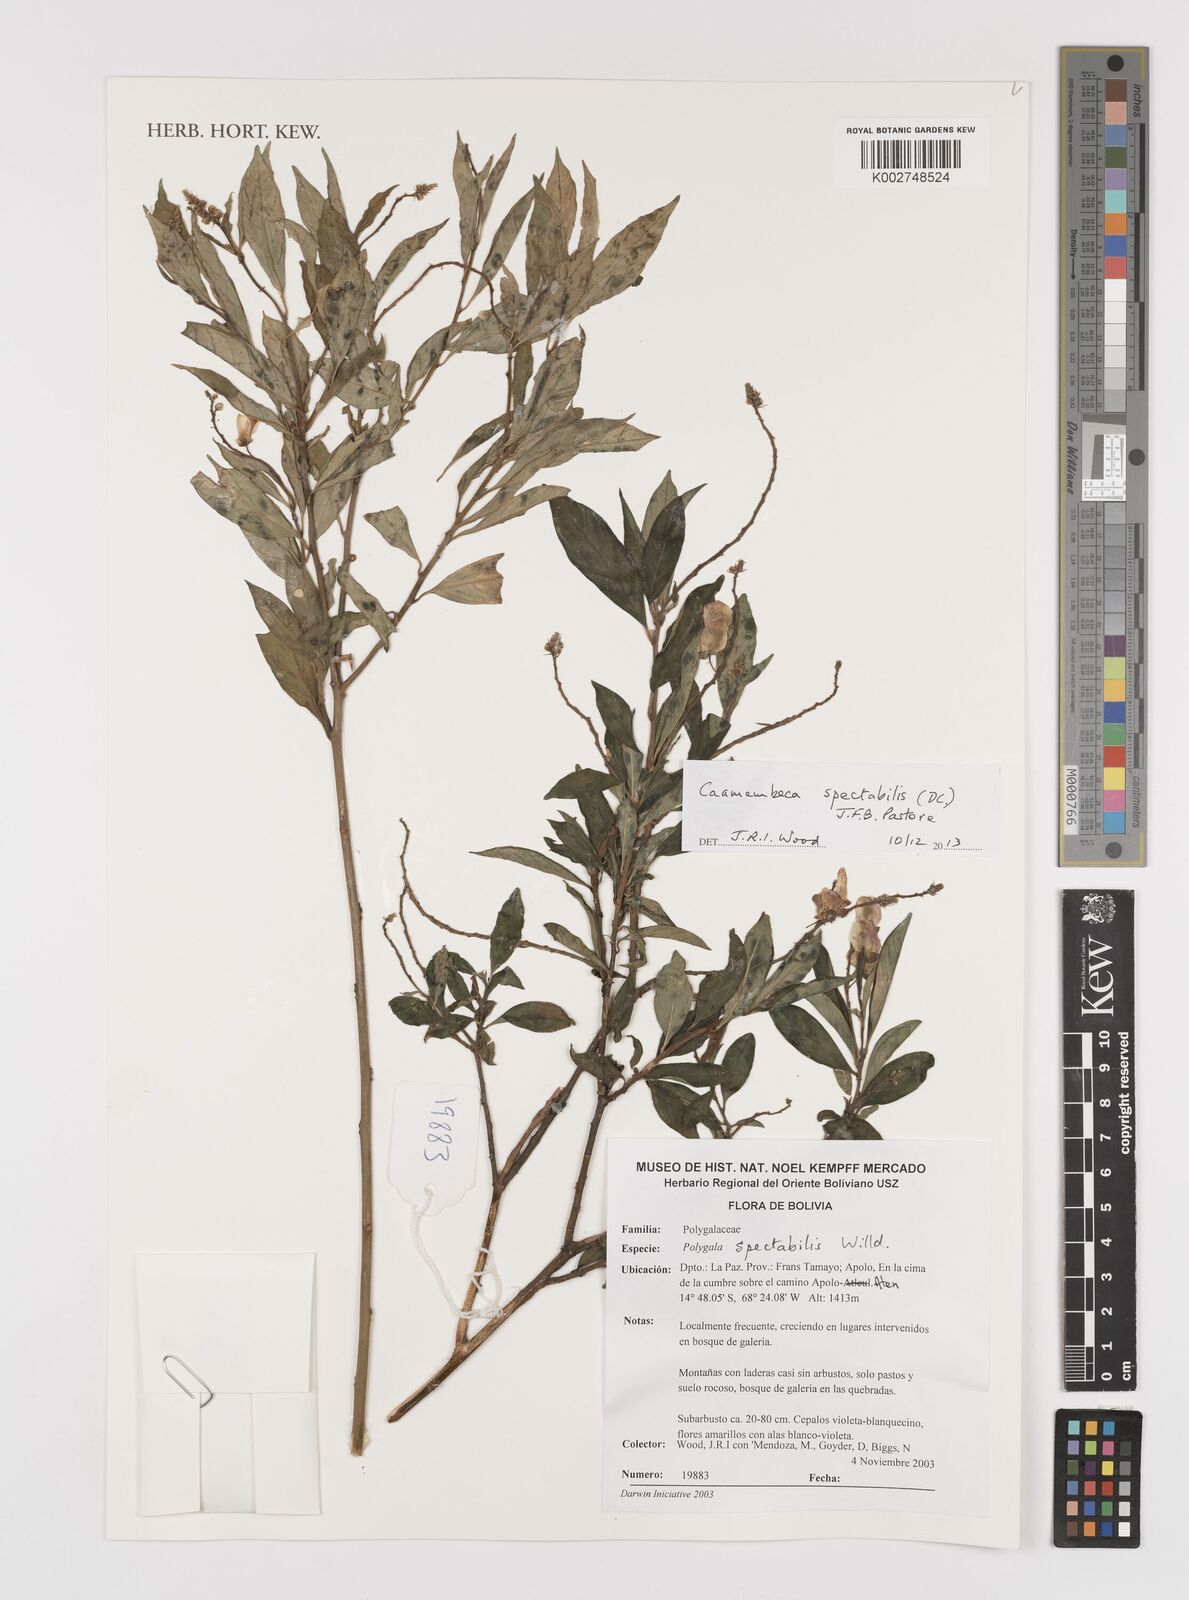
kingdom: Plantae
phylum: Tracheophyta
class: Magnoliopsida
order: Fabales
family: Polygalaceae
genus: Caamembeca
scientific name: Caamembeca spectabilis
